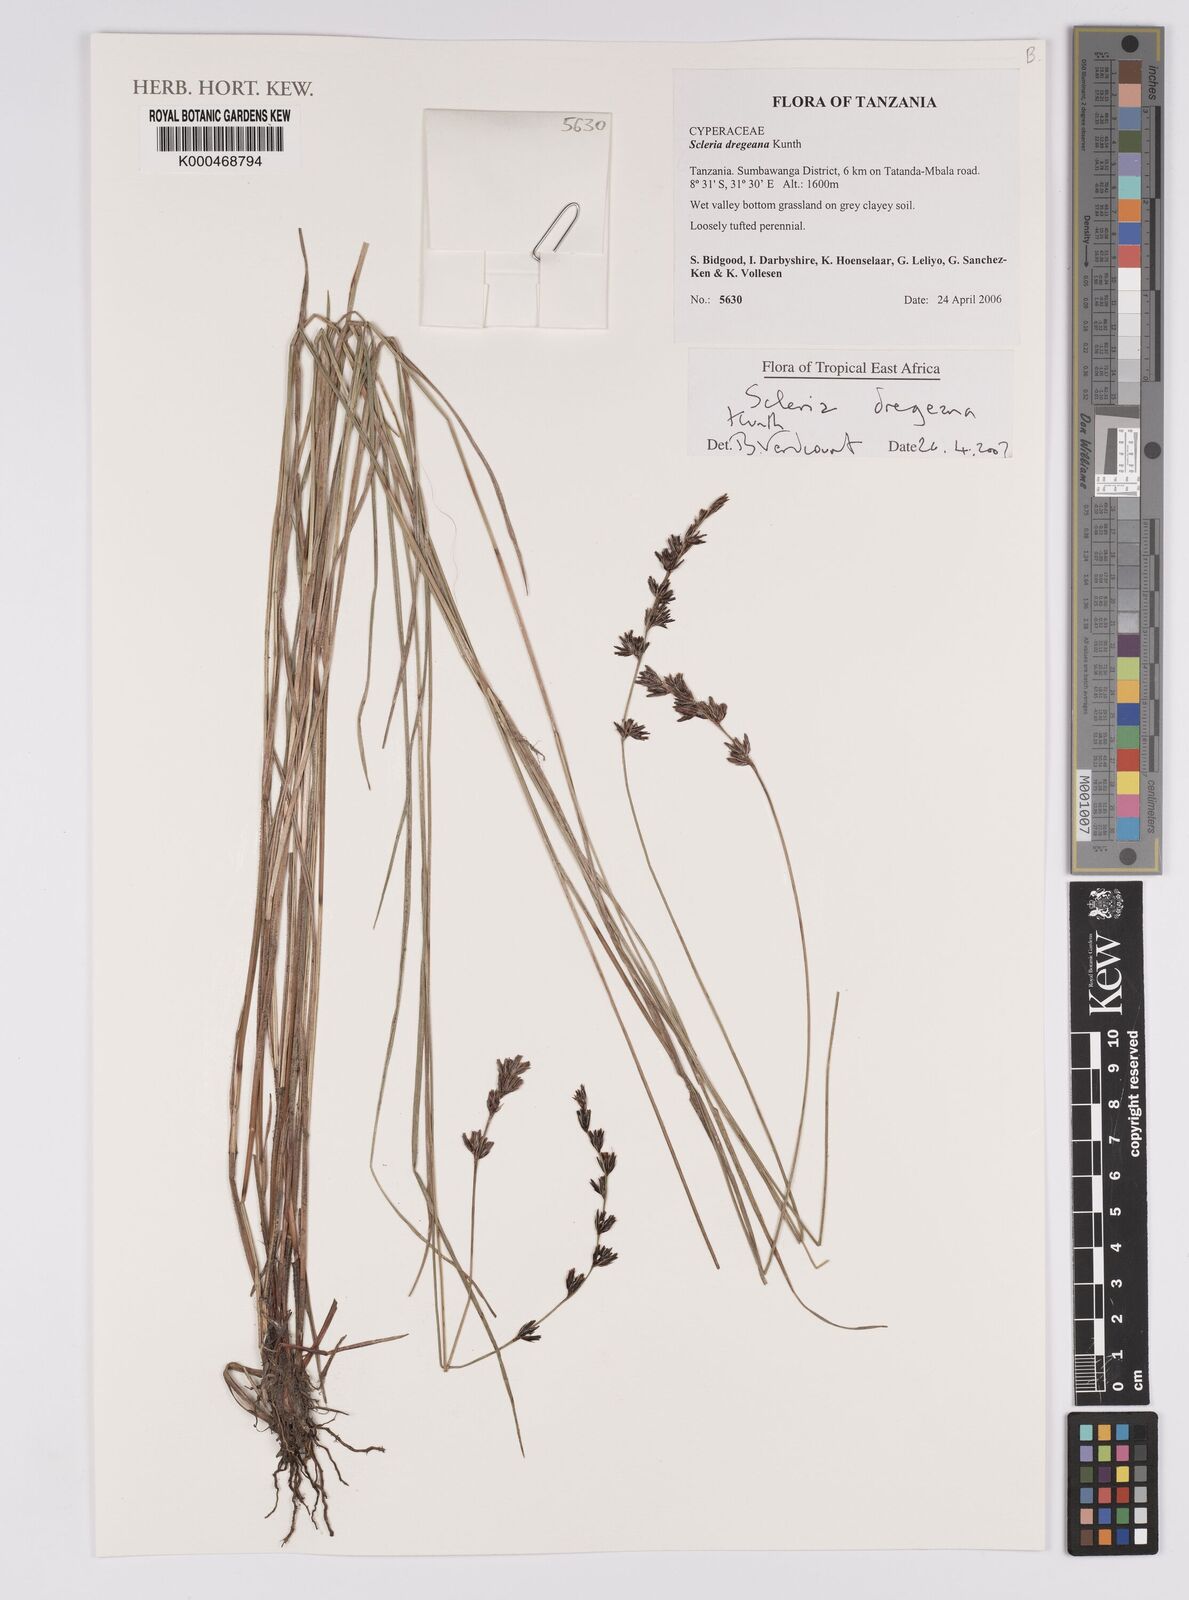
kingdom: Plantae
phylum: Tracheophyta
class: Liliopsida
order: Poales
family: Cyperaceae
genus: Scleria
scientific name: Scleria dregeana
